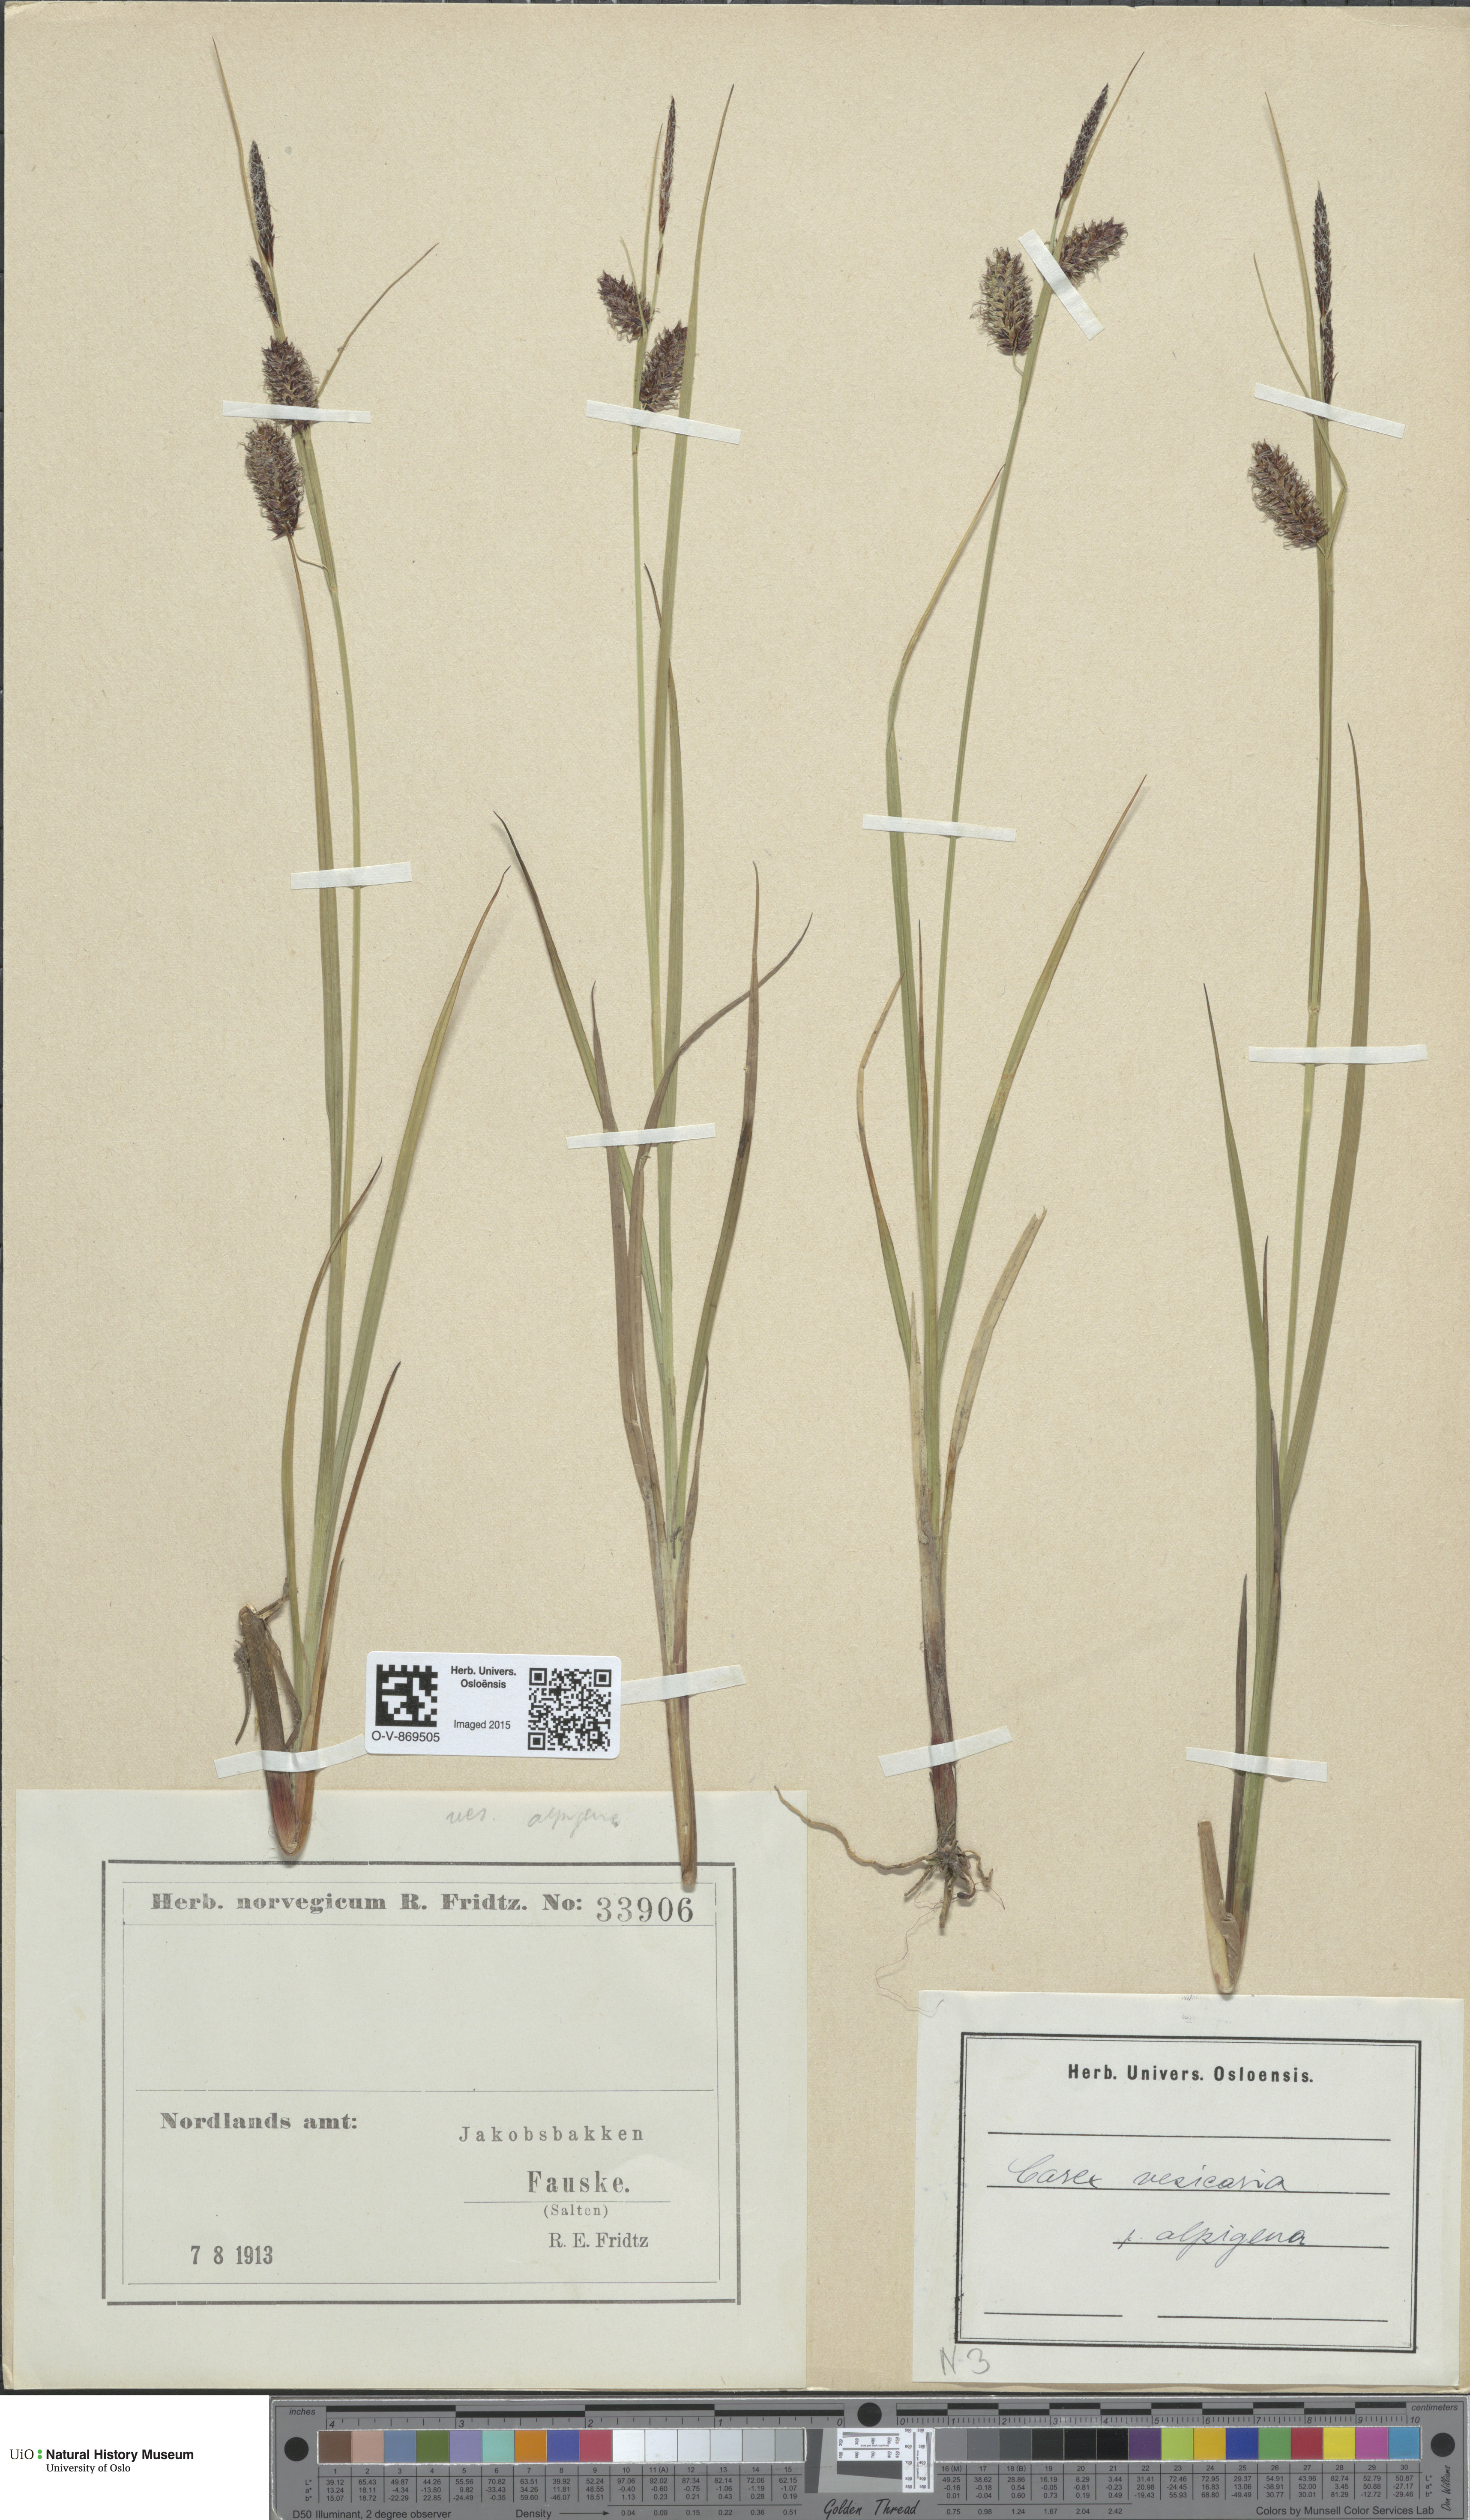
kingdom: Plantae
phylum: Tracheophyta
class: Liliopsida
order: Poales
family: Cyperaceae
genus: Carex
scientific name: Carex grahamii
